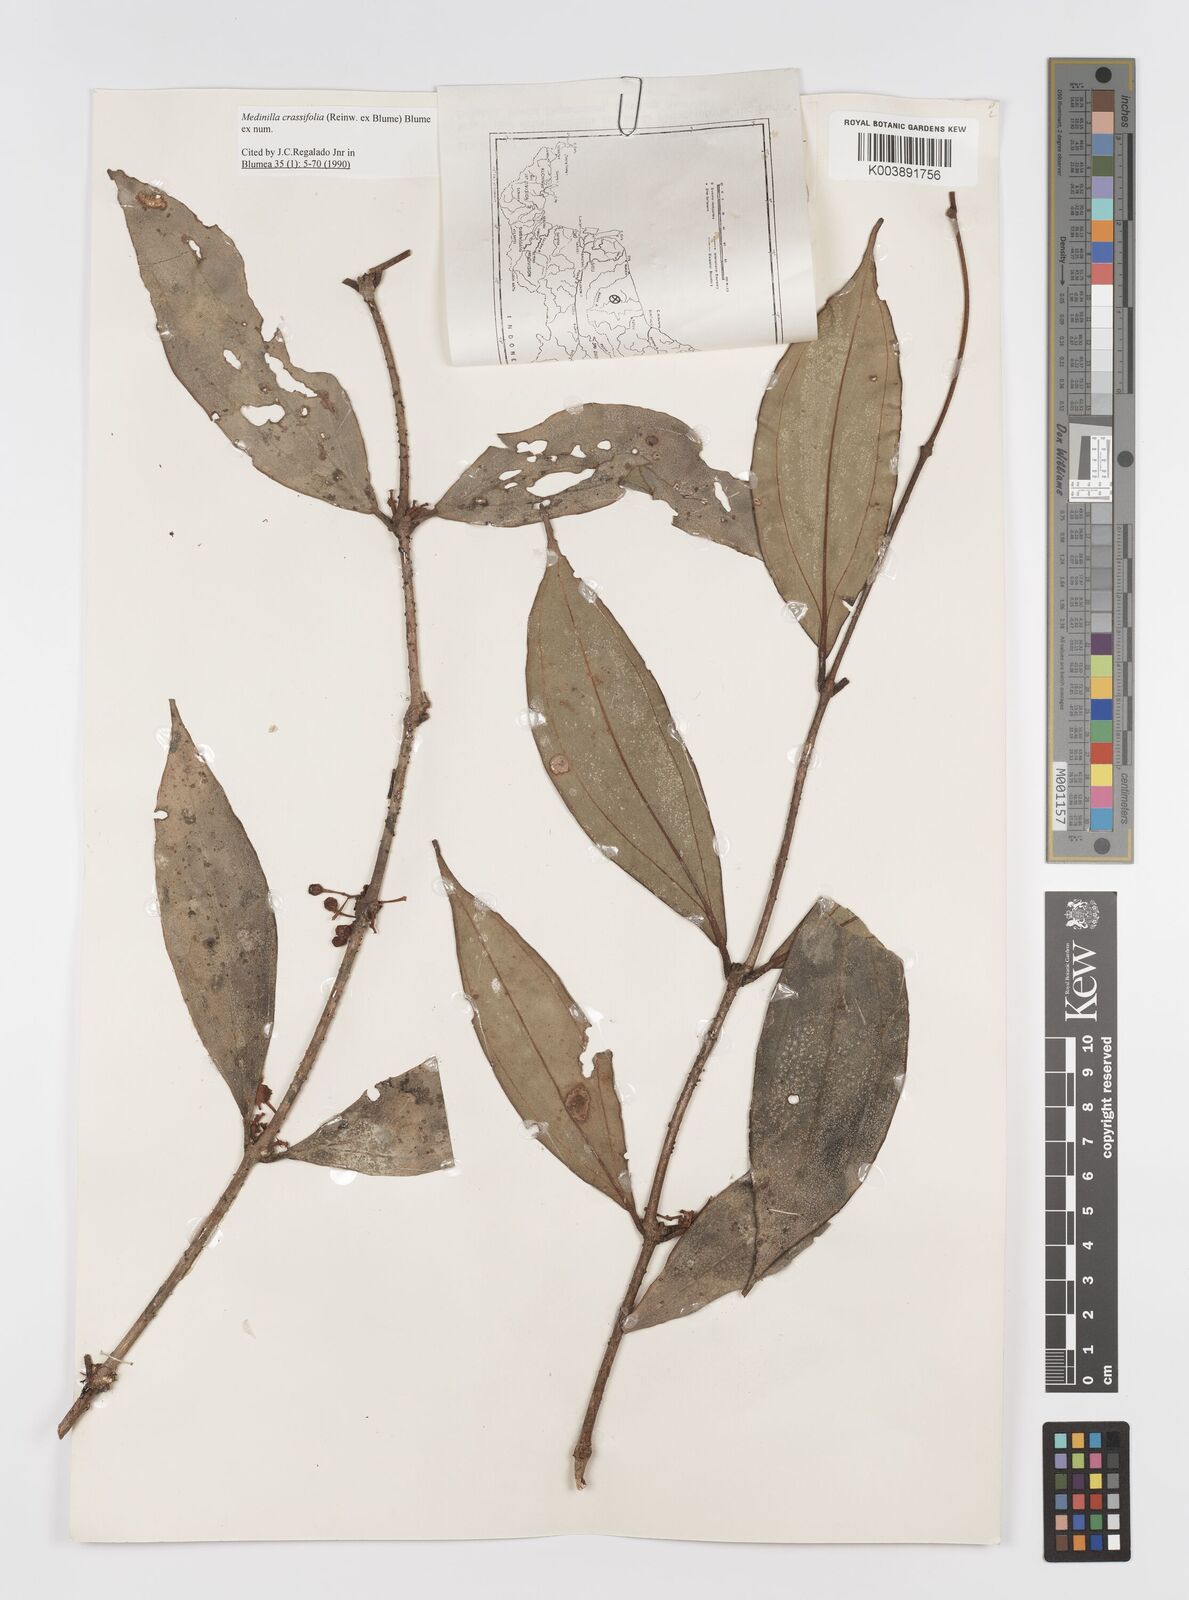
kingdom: Plantae
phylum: Tracheophyta
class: Magnoliopsida
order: Myrtales
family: Melastomataceae
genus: Medinilla
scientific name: Medinilla crassifolia
